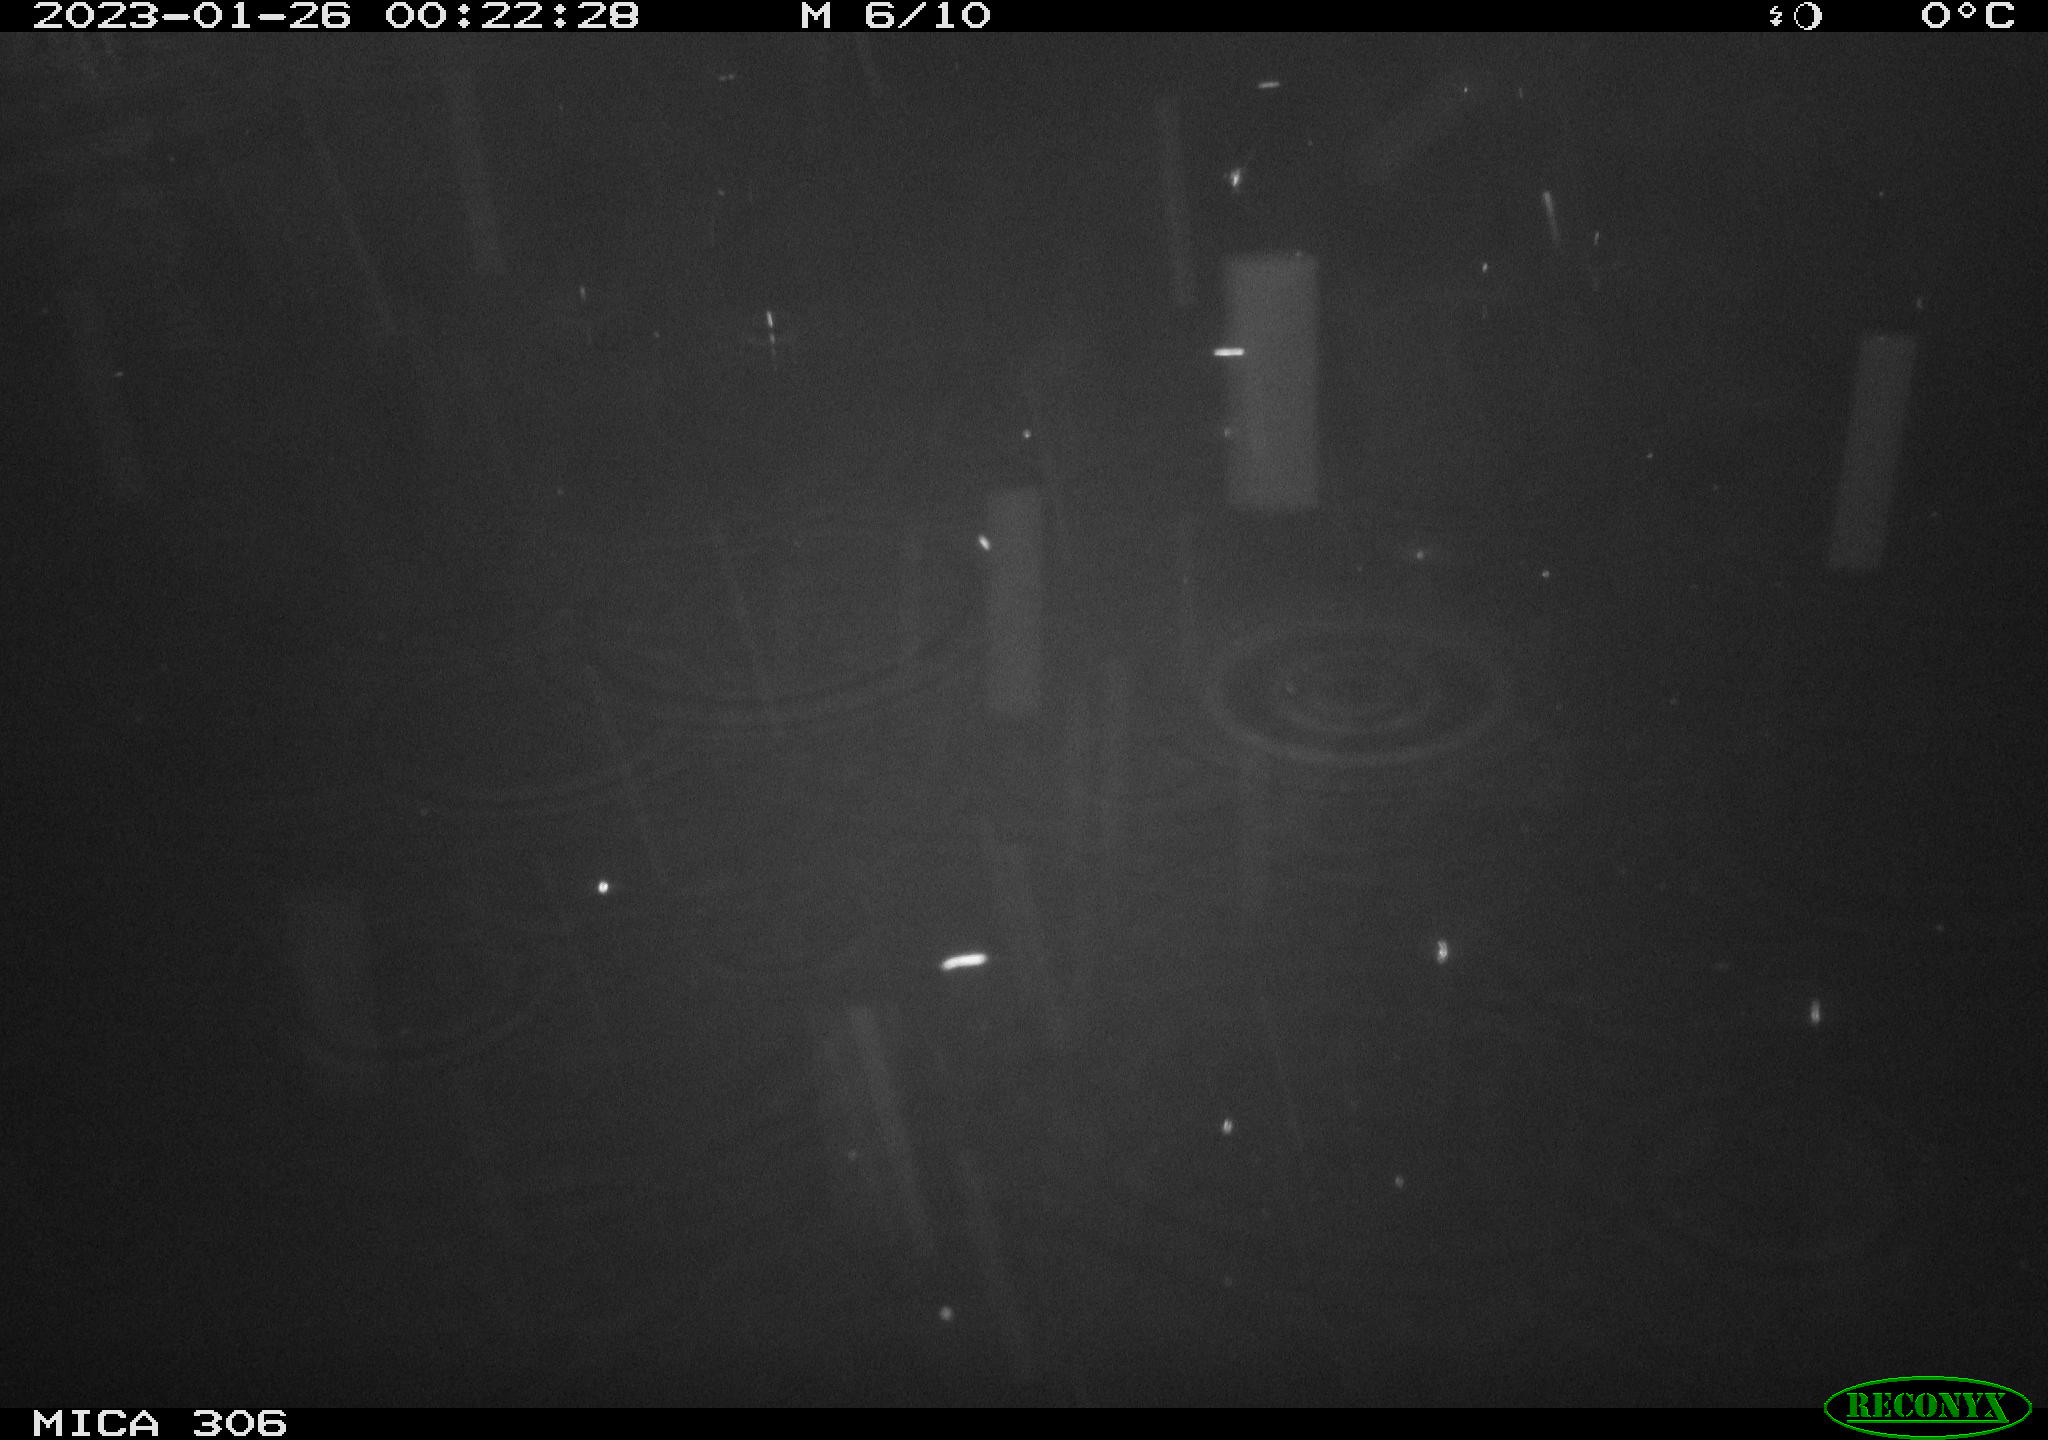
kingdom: Animalia
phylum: Chordata
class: Aves
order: Gruiformes
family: Rallidae
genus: Fulica
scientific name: Fulica atra
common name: Eurasian coot
